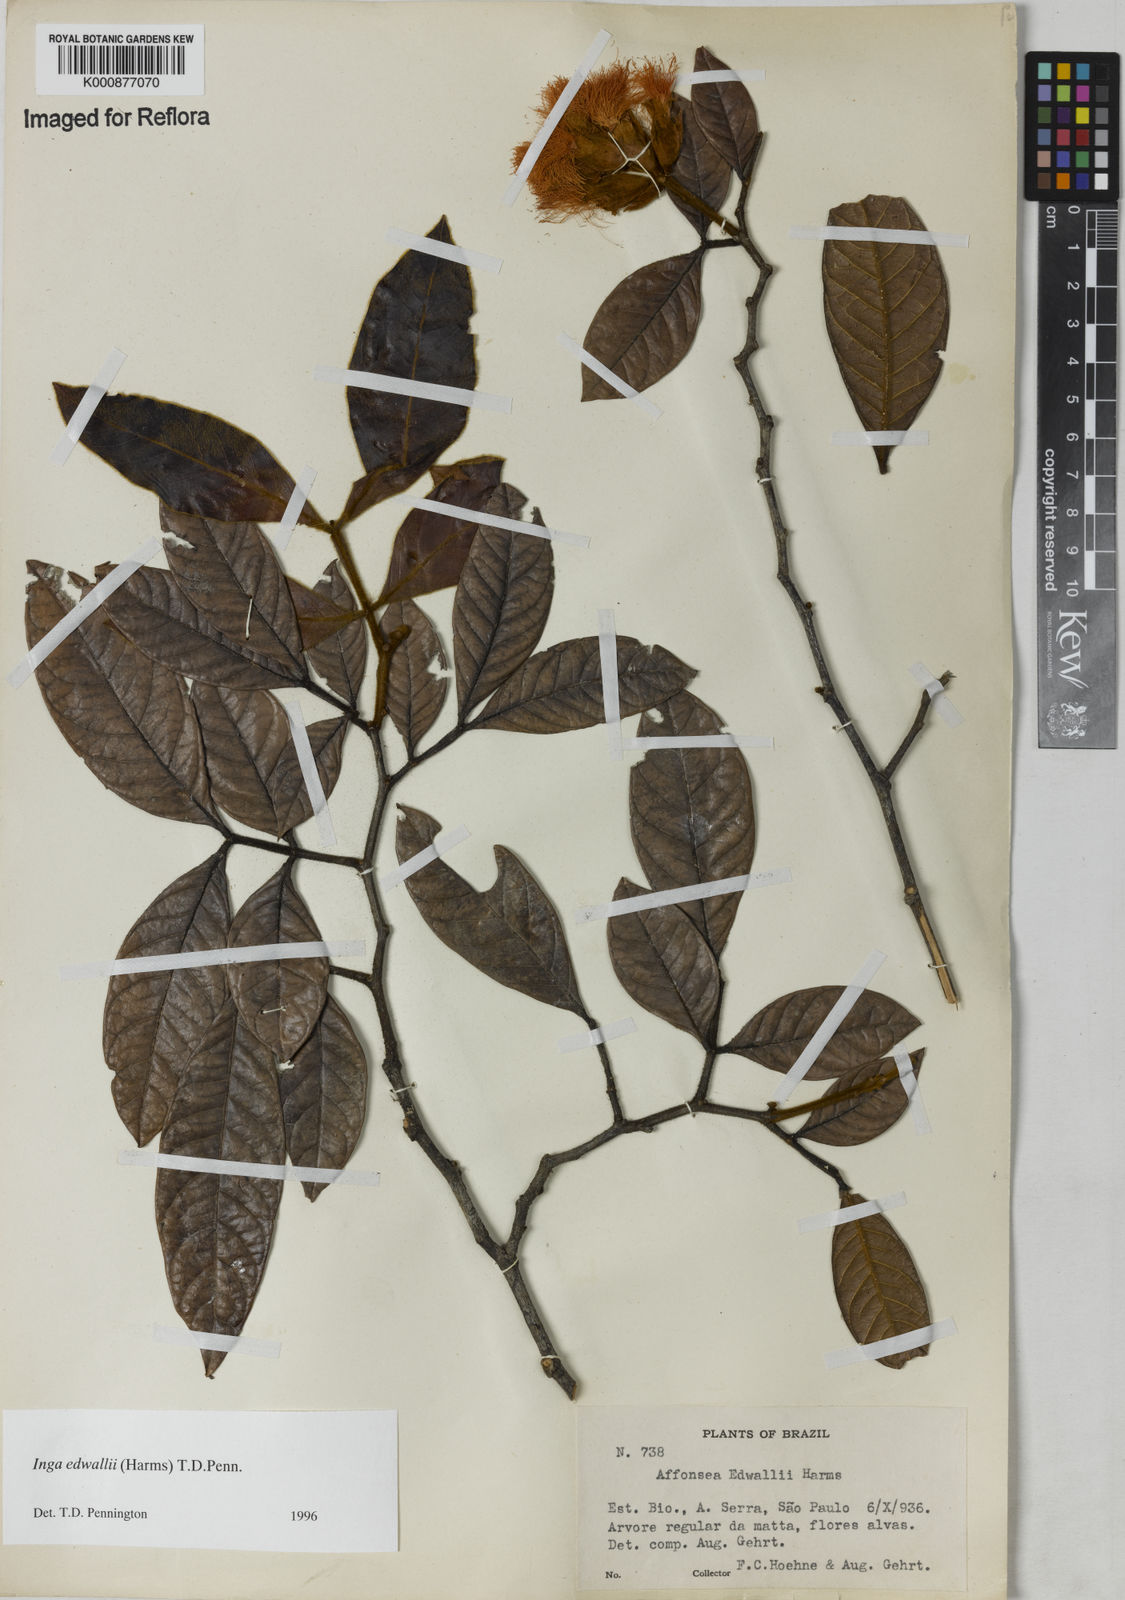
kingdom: Plantae
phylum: Tracheophyta
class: Magnoliopsida
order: Fabales
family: Fabaceae
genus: Inga
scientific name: Inga edwallii
